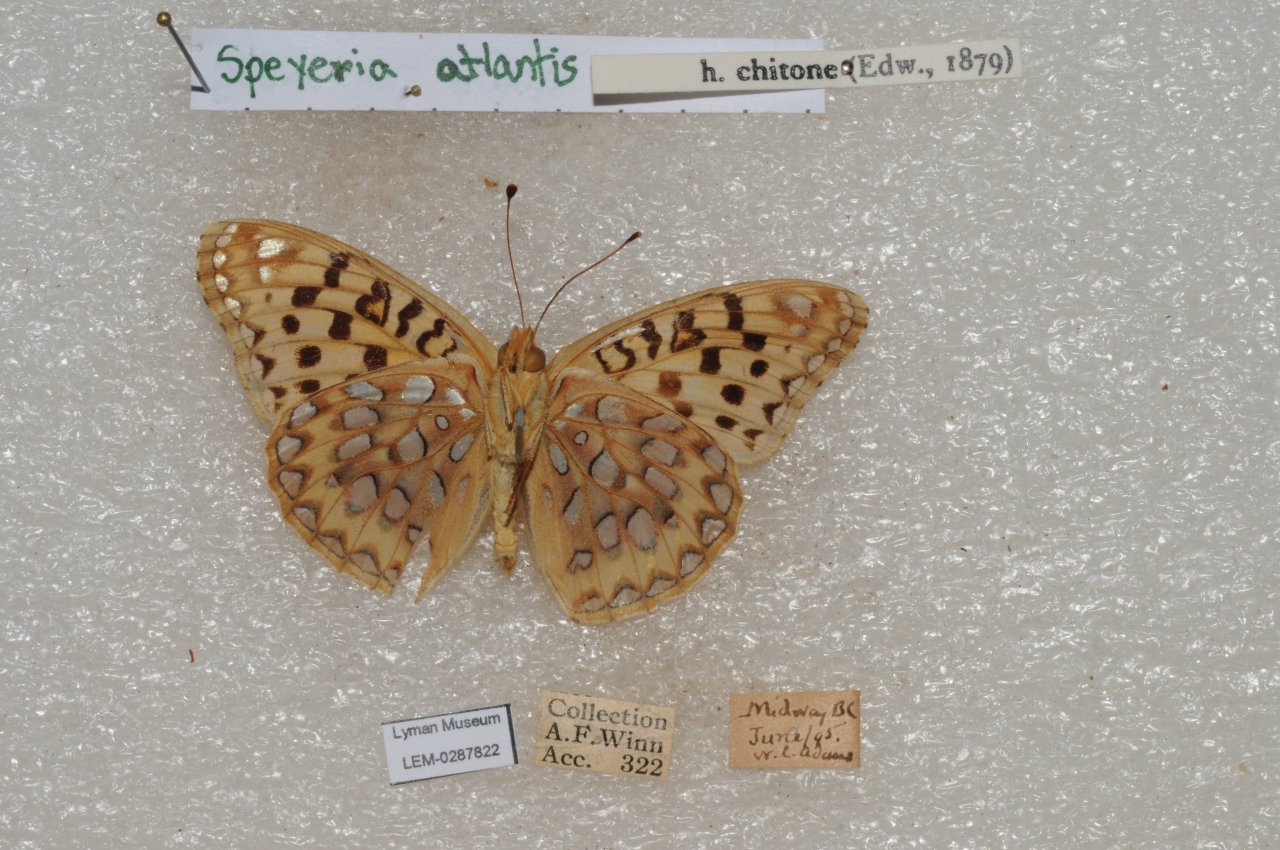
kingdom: Animalia
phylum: Arthropoda
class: Insecta
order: Lepidoptera
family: Nymphalidae
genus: Speyeria
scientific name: Speyeria atlantis
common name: Atlantis Fritillary
